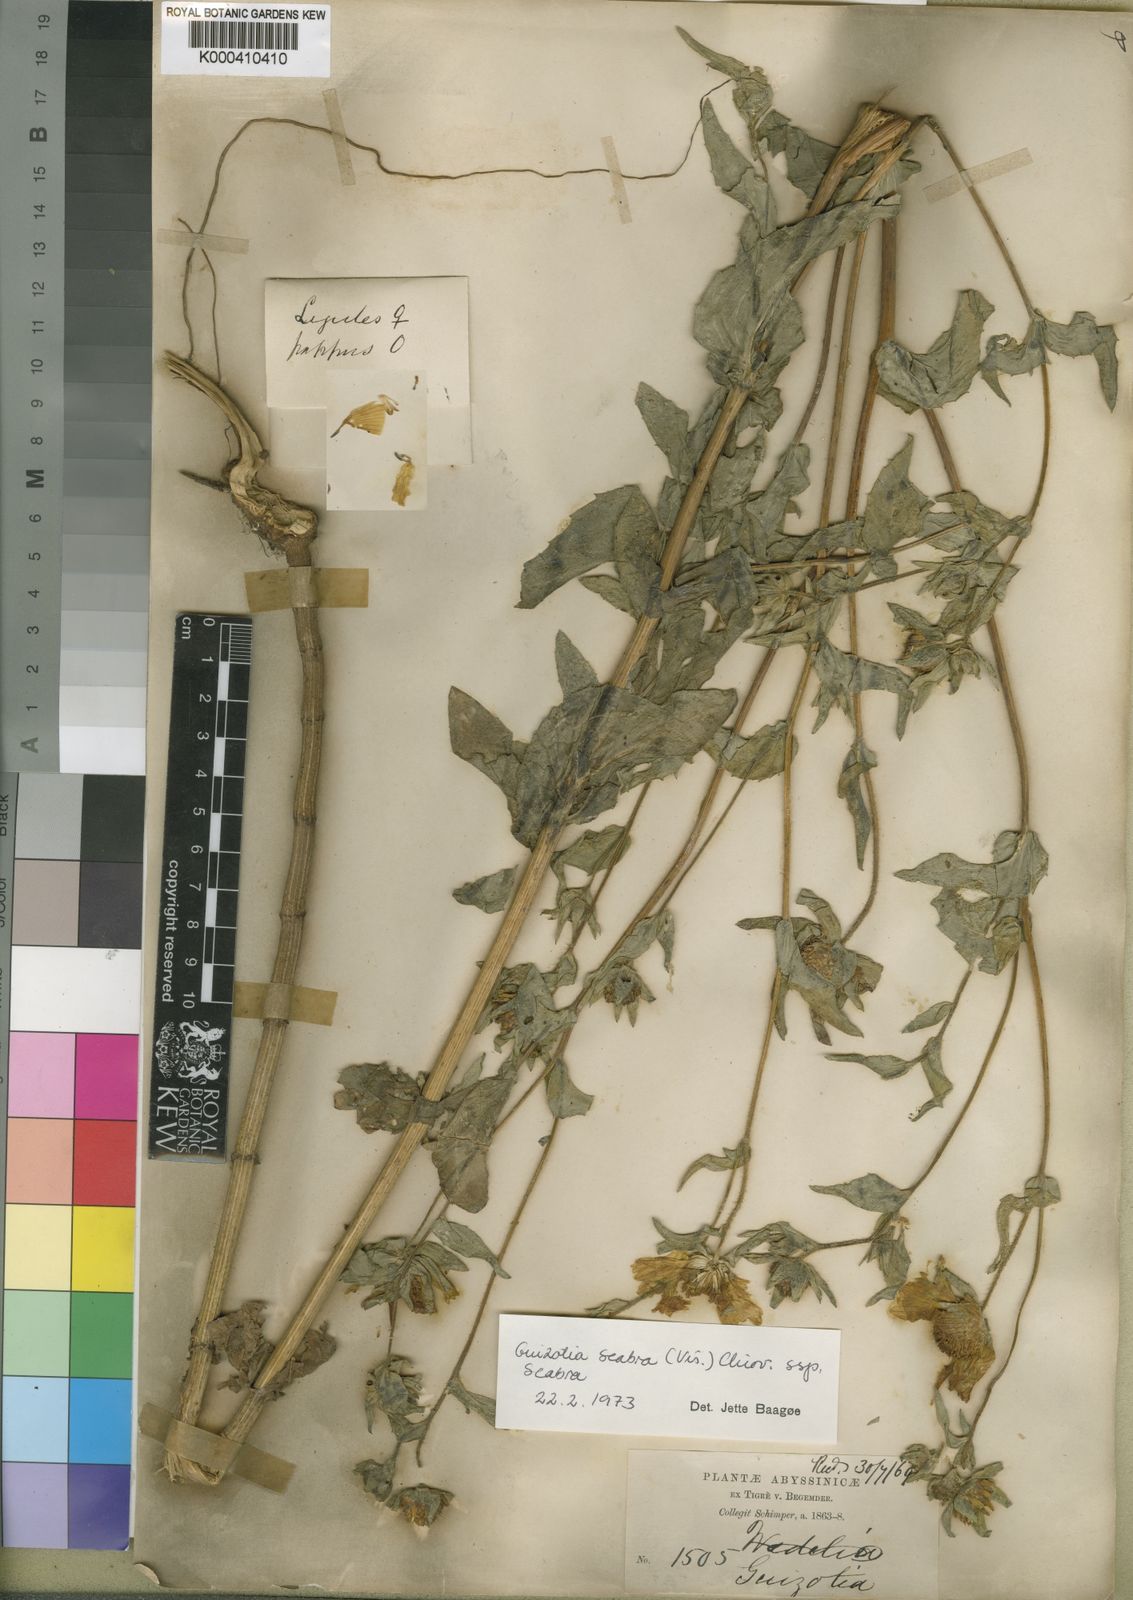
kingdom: Plantae
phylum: Tracheophyta
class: Magnoliopsida
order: Asterales
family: Asteraceae
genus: Guizotia
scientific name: Guizotia scabra
